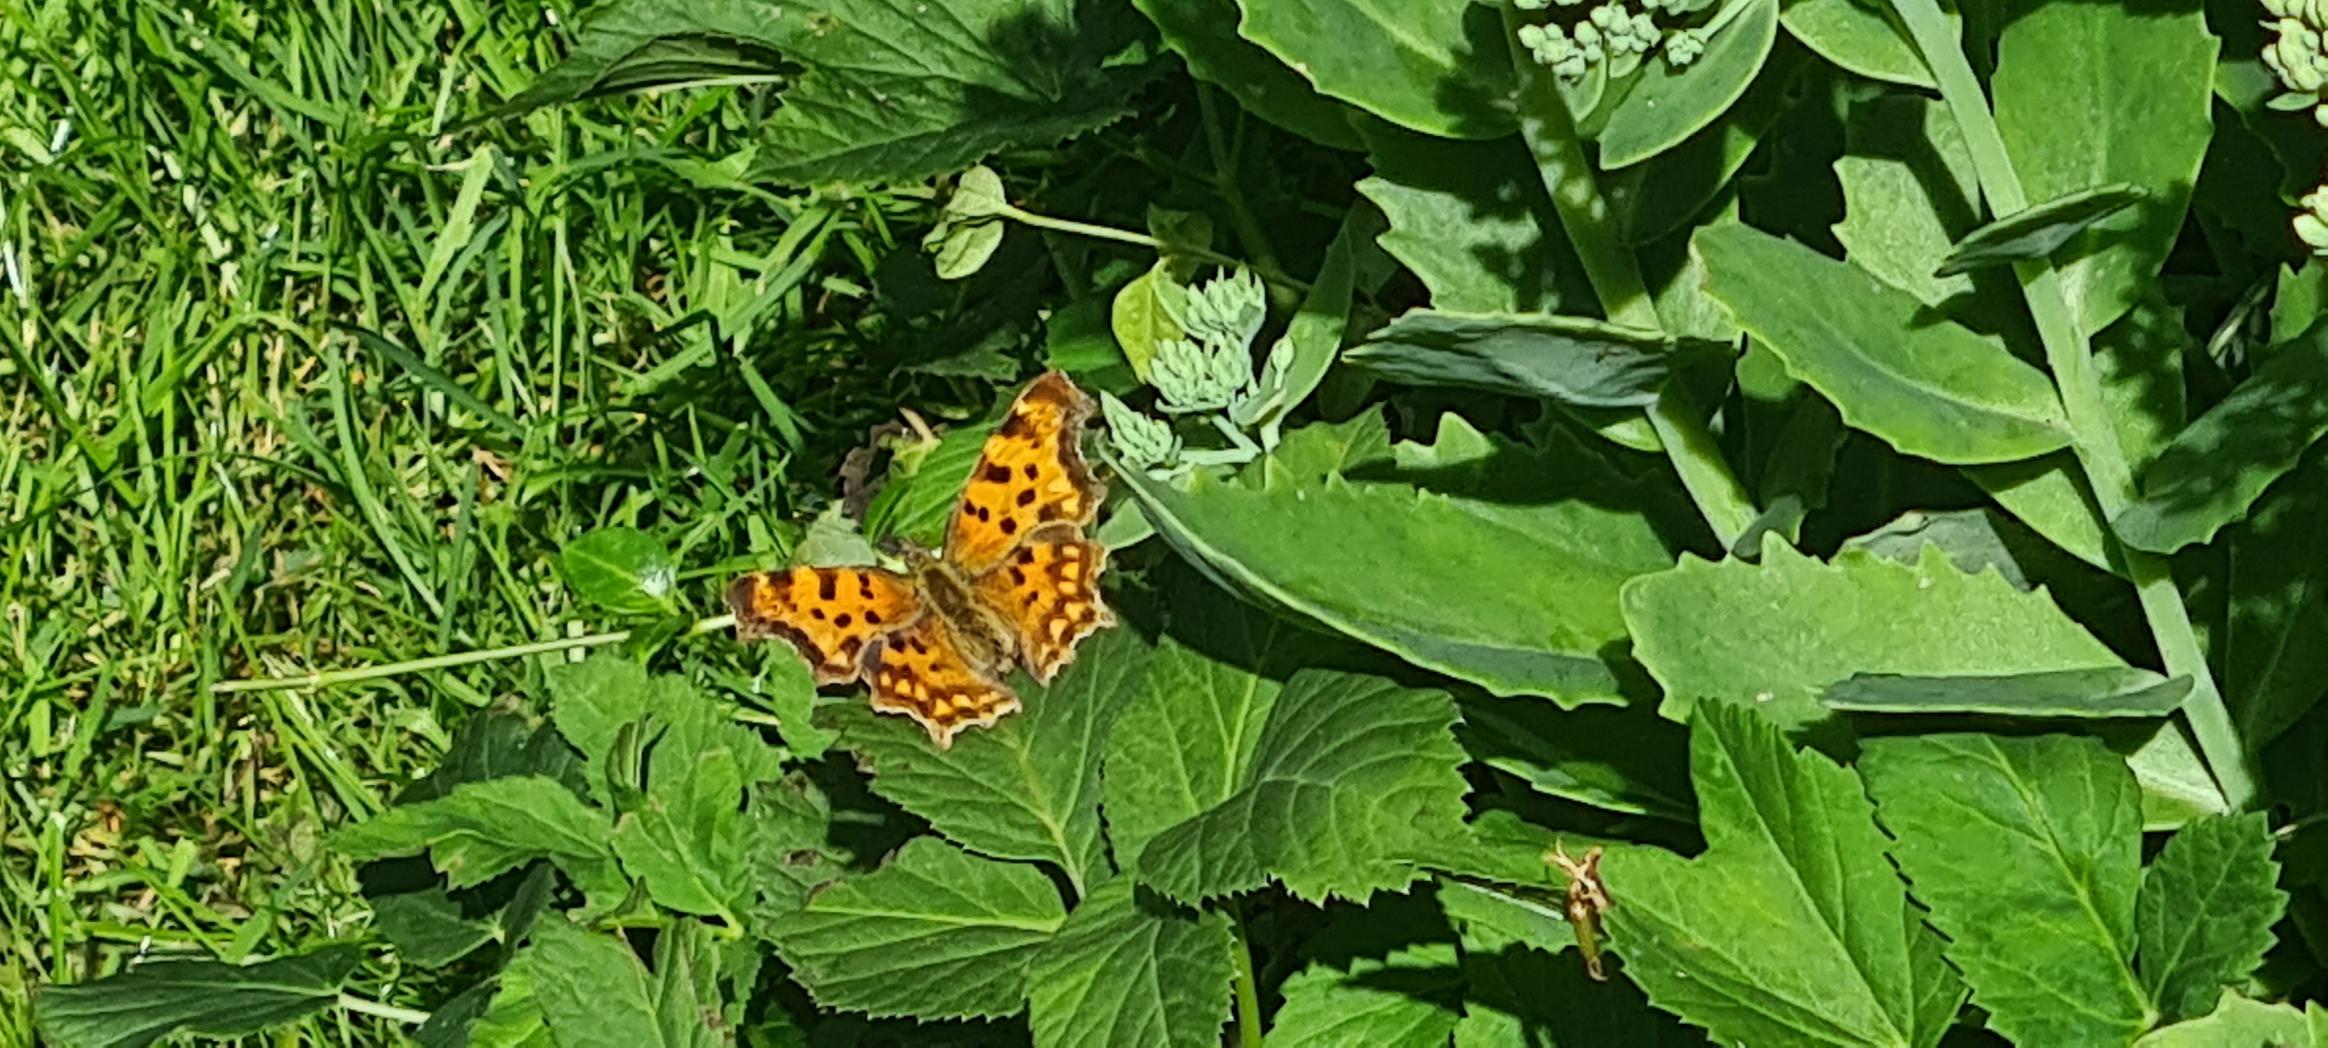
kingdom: Animalia
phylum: Arthropoda
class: Insecta
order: Lepidoptera
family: Nymphalidae
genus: Polygonia
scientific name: Polygonia c-album
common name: Det hvide C
